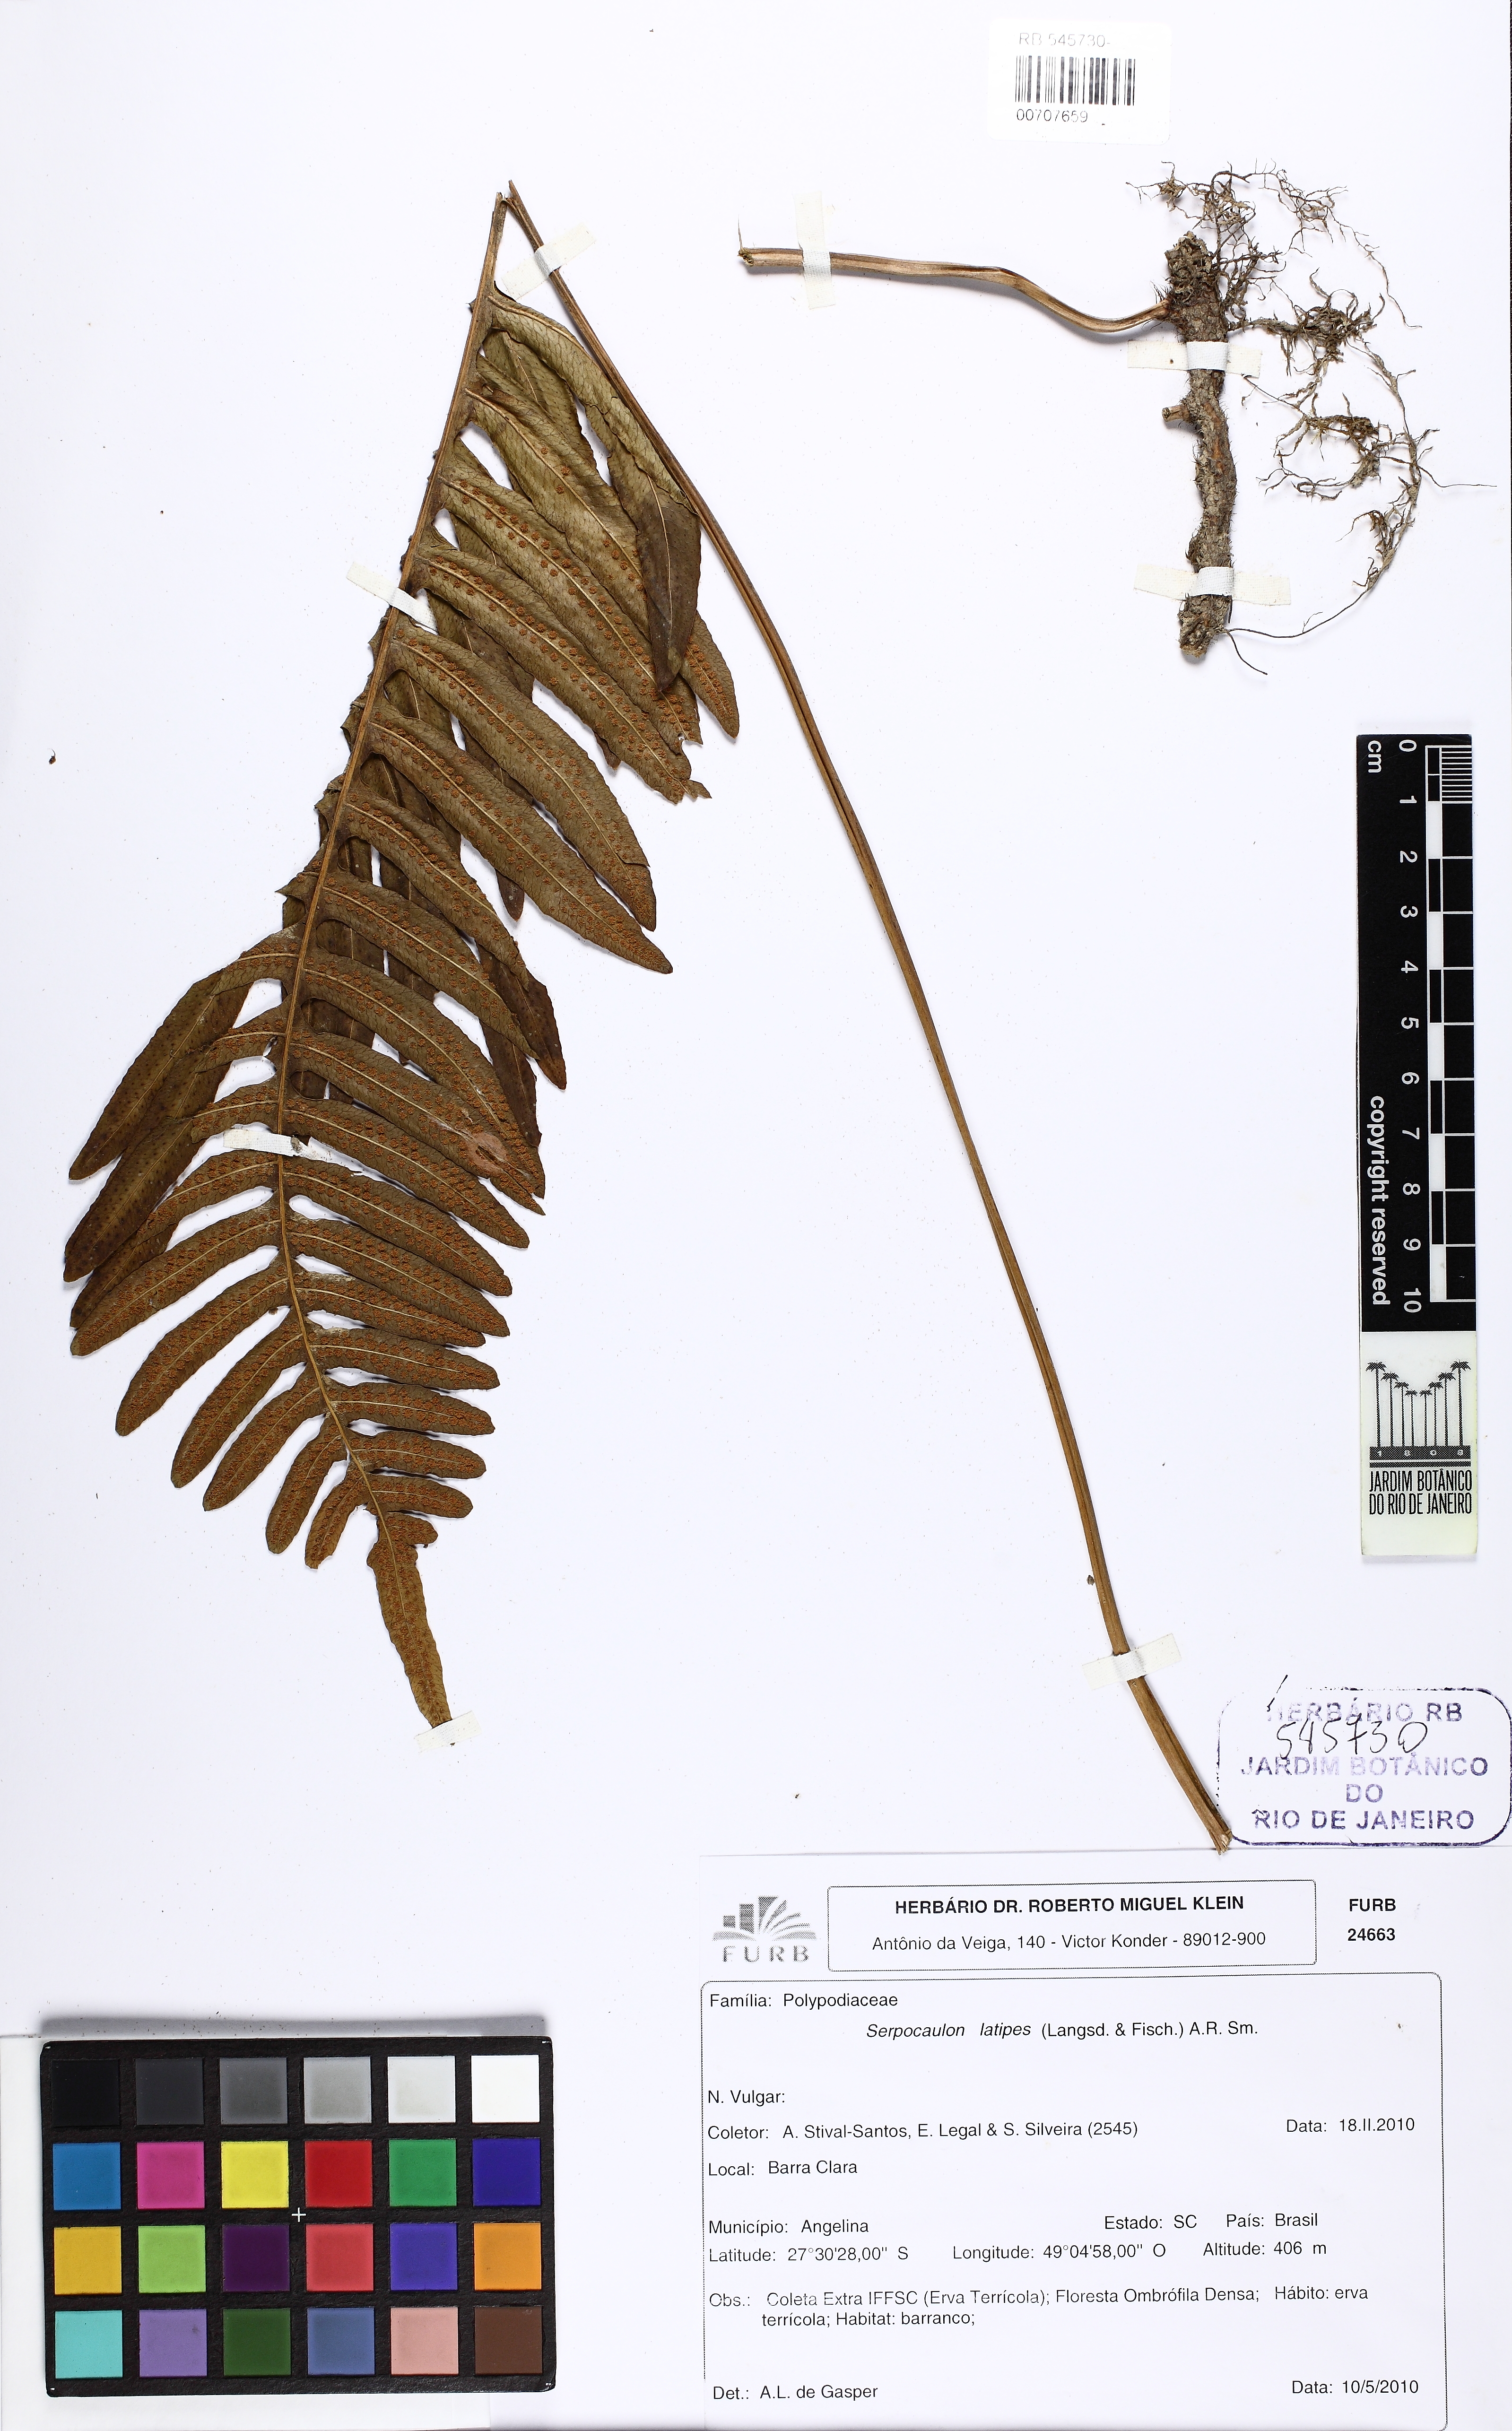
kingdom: Plantae
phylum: Tracheophyta
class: Polypodiopsida
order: Polypodiales
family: Polypodiaceae
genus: Serpocaulon
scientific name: Serpocaulon latipes
